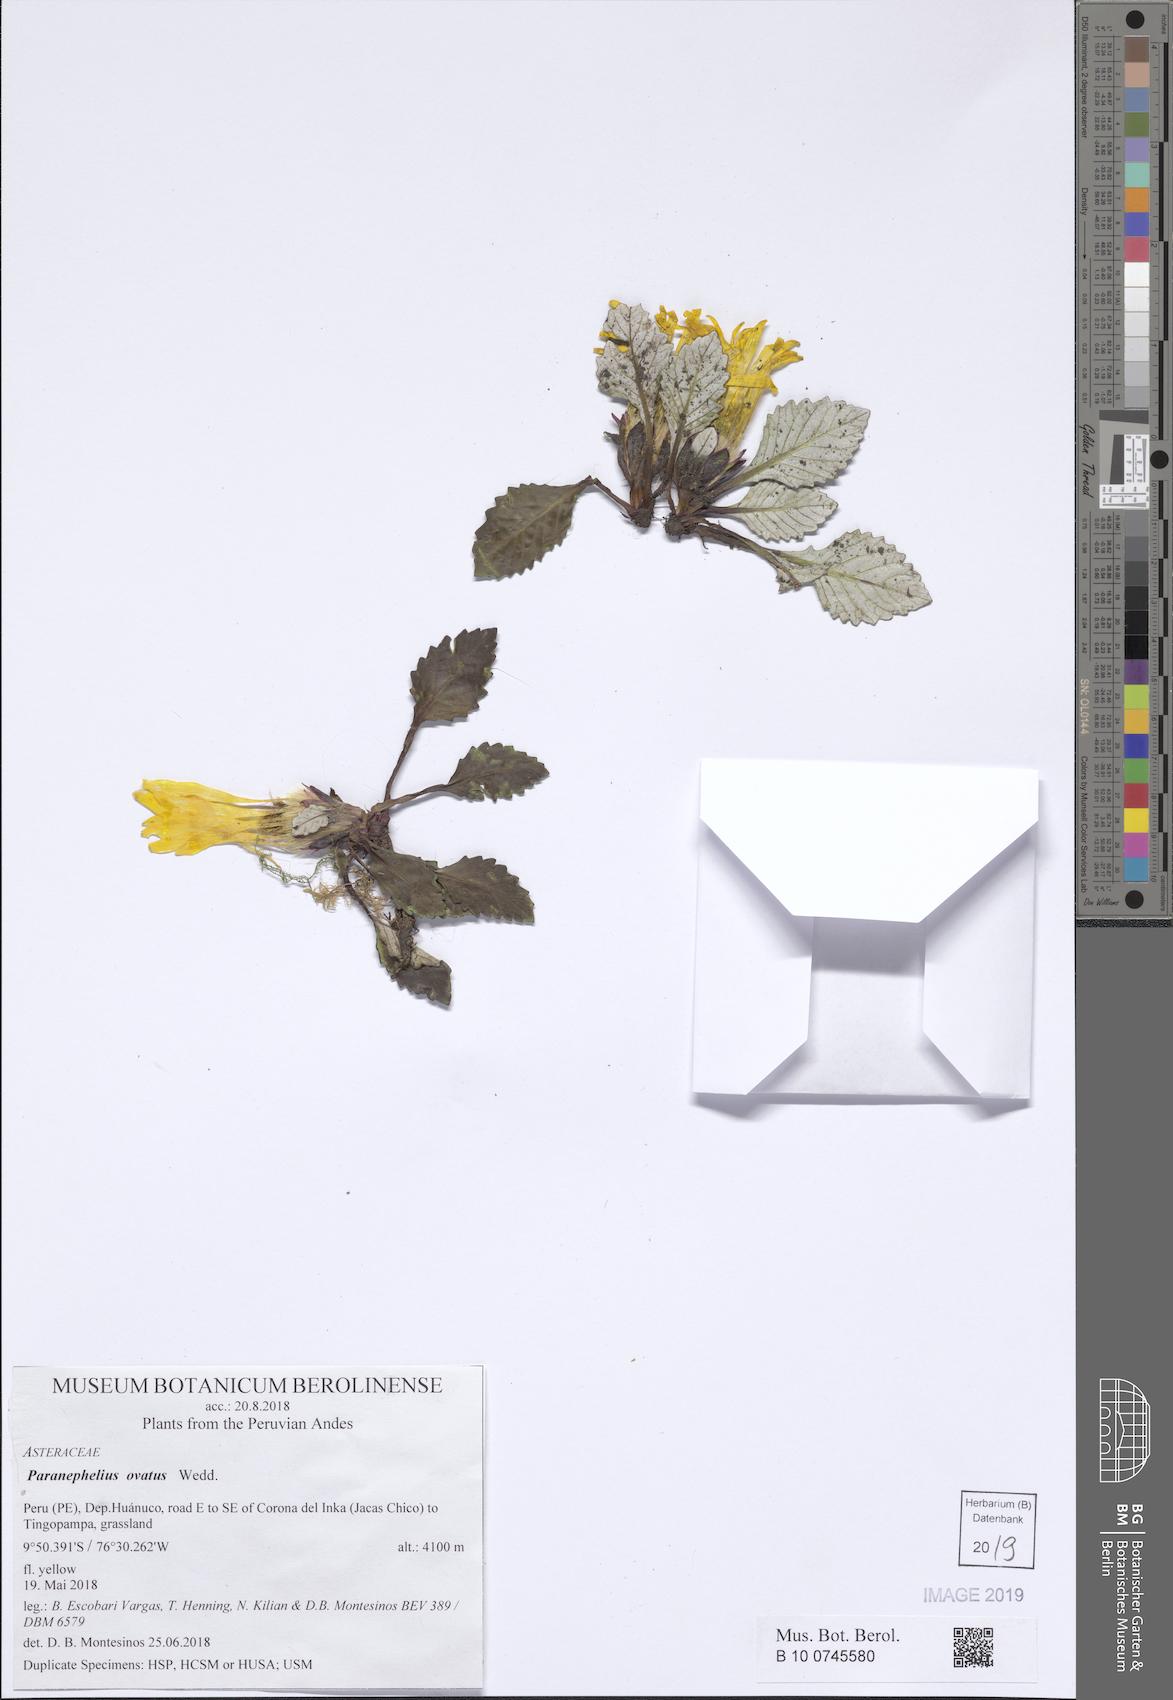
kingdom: Plantae
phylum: Tracheophyta
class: Magnoliopsida
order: Asterales
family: Asteraceae
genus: Paranephelius
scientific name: Paranephelius ovatus
